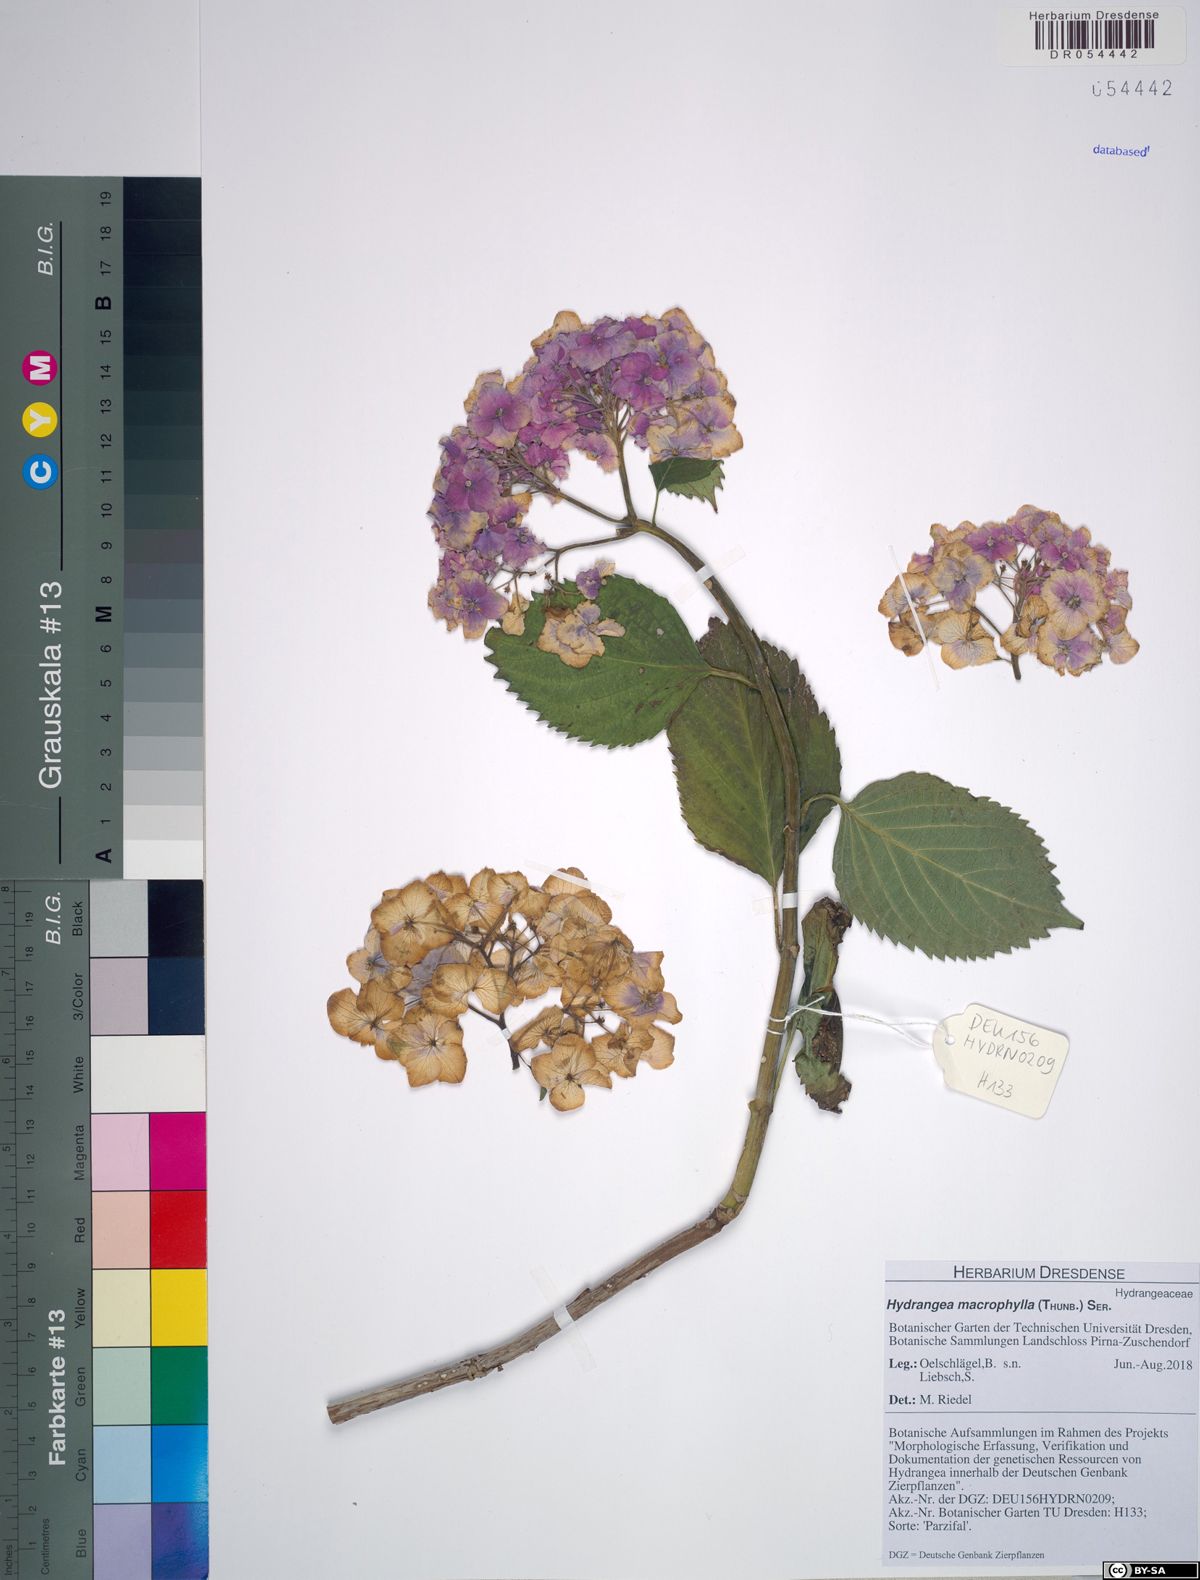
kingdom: Plantae
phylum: Tracheophyta
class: Magnoliopsida
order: Cornales
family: Hydrangeaceae
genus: Hydrangea
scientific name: Hydrangea macrophylla
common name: Hydrangea
